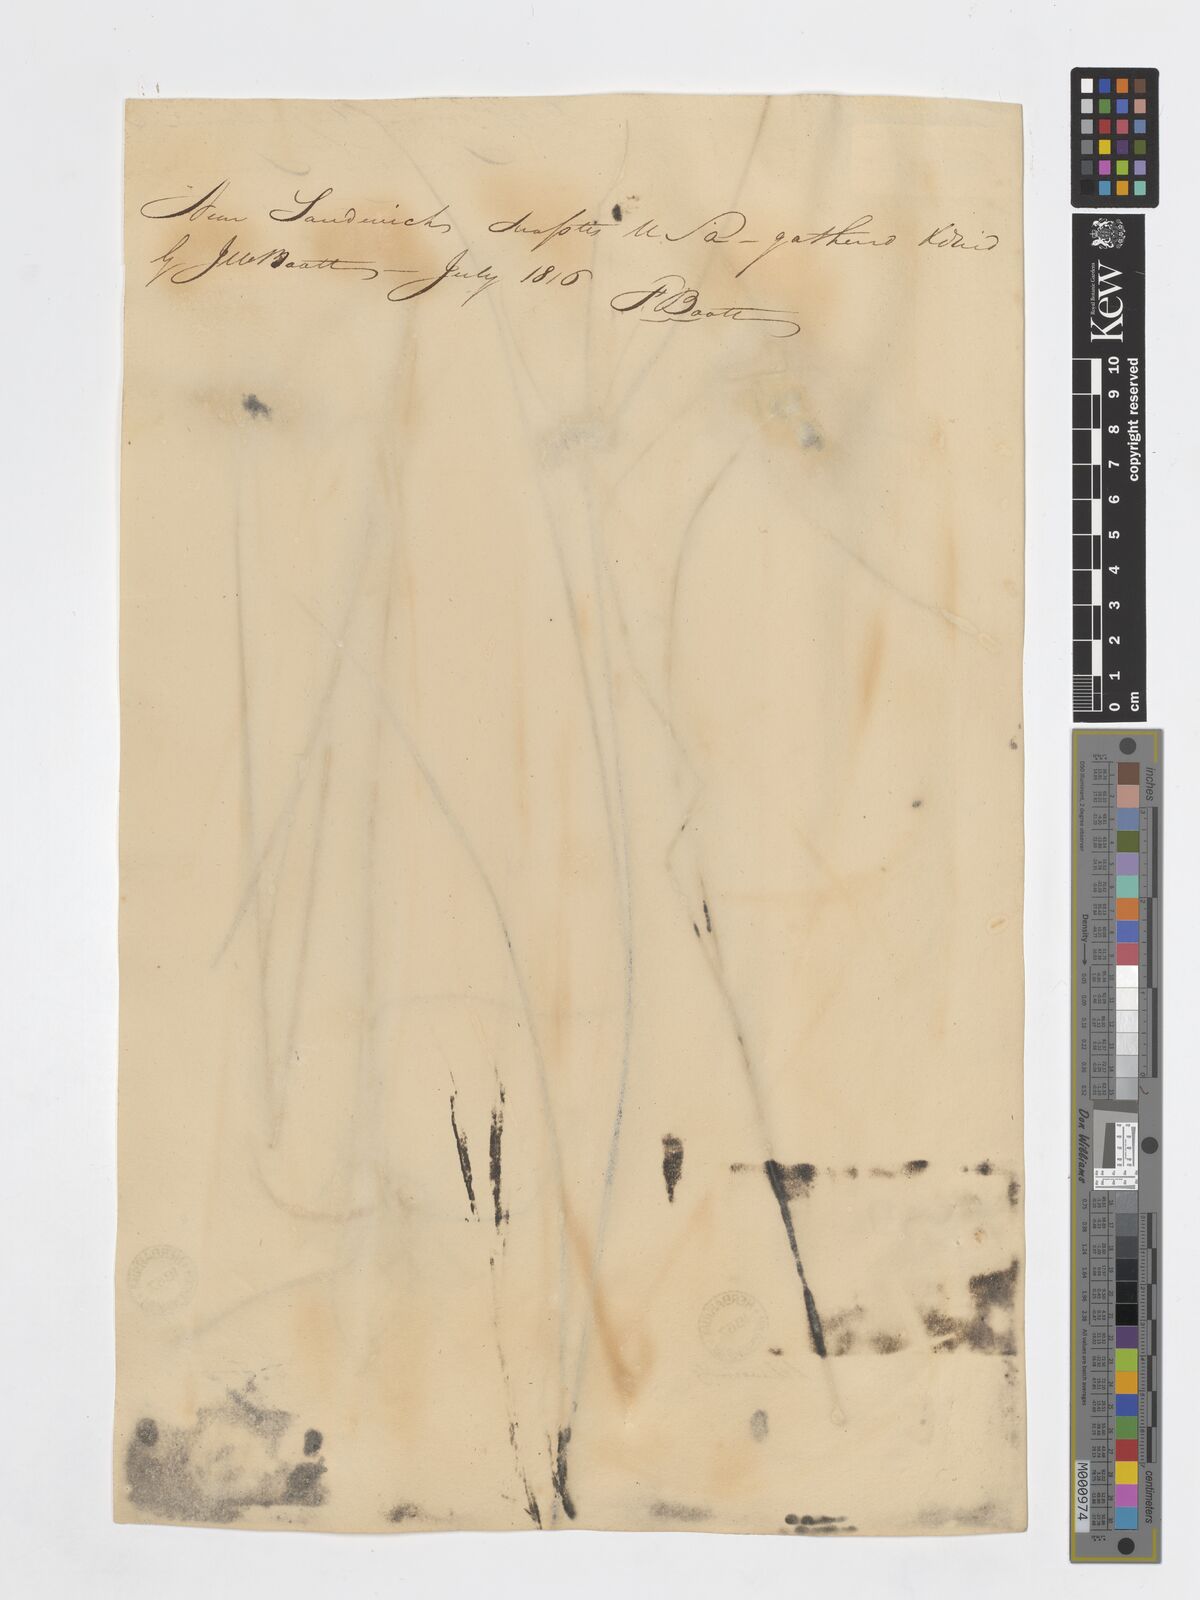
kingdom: Plantae
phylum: Tracheophyta
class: Liliopsida
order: Poales
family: Cyperaceae
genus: Eriophorum
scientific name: Eriophorum virginicum
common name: Tawny cottongrass
